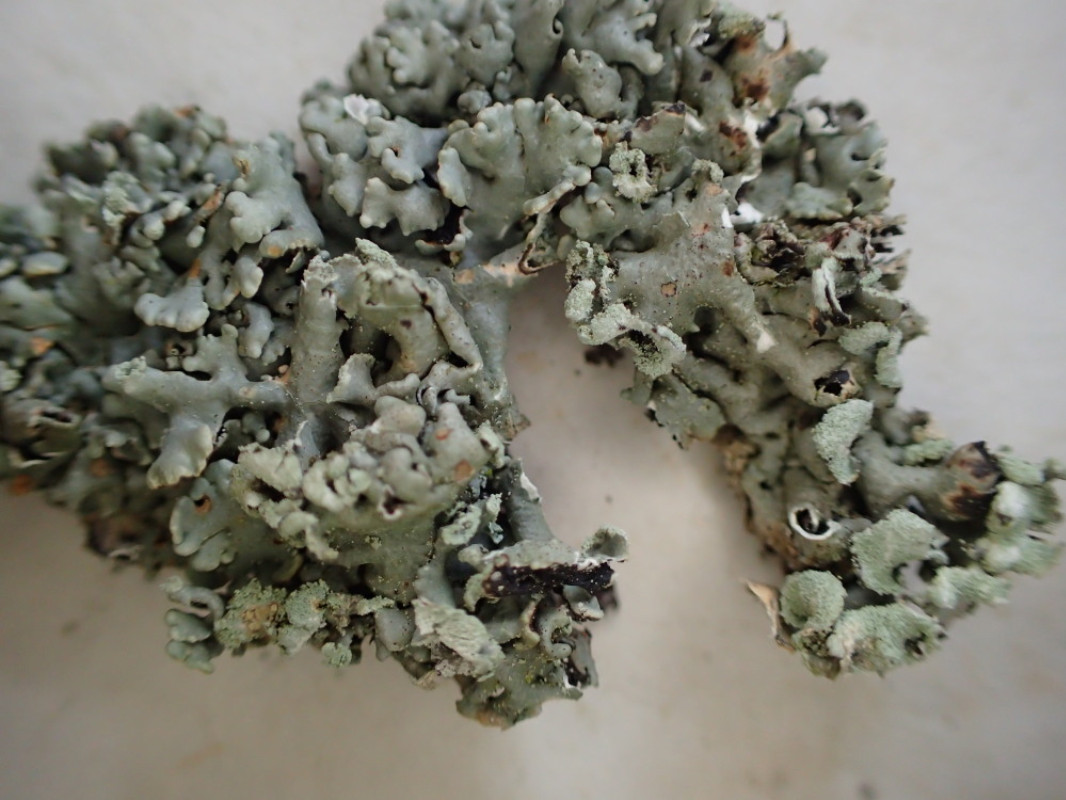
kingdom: Fungi
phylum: Ascomycota
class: Lecanoromycetes
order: Lecanorales
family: Parmeliaceae
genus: Hypogymnia
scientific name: Hypogymnia physodes
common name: almindelig kvistlav
